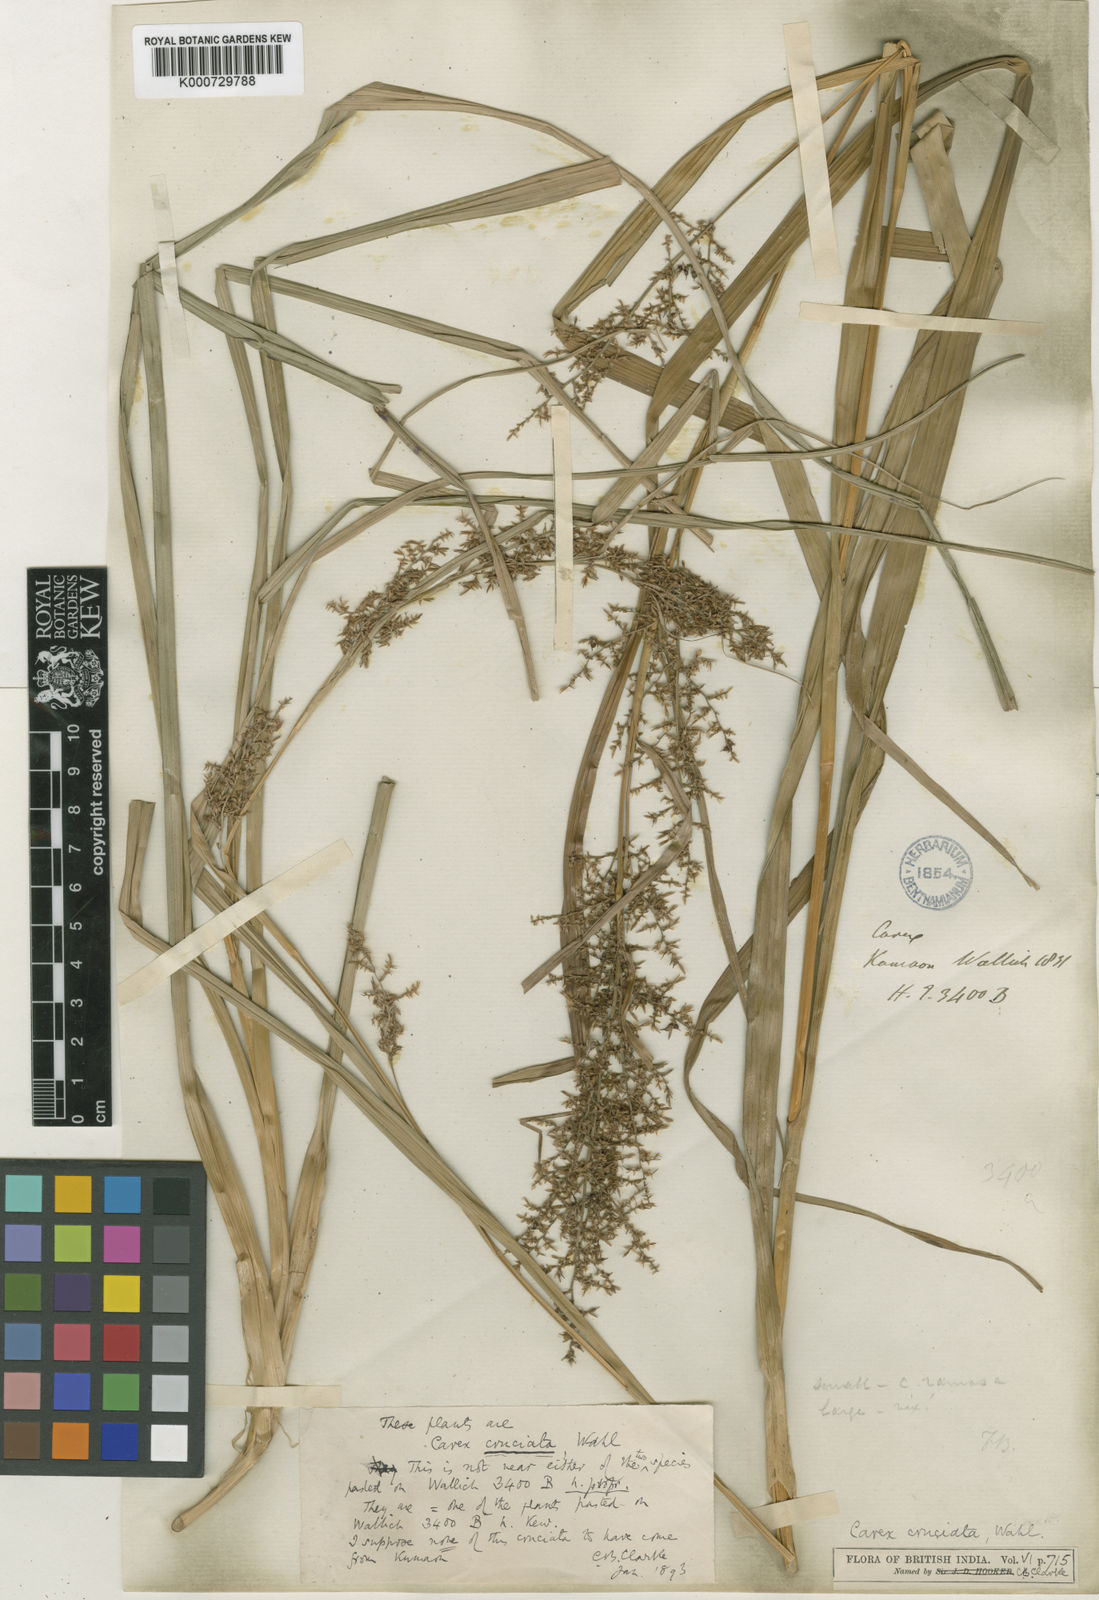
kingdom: Plantae
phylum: Tracheophyta
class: Liliopsida
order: Poales
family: Cyperaceae
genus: Carex
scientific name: Carex cruciata
